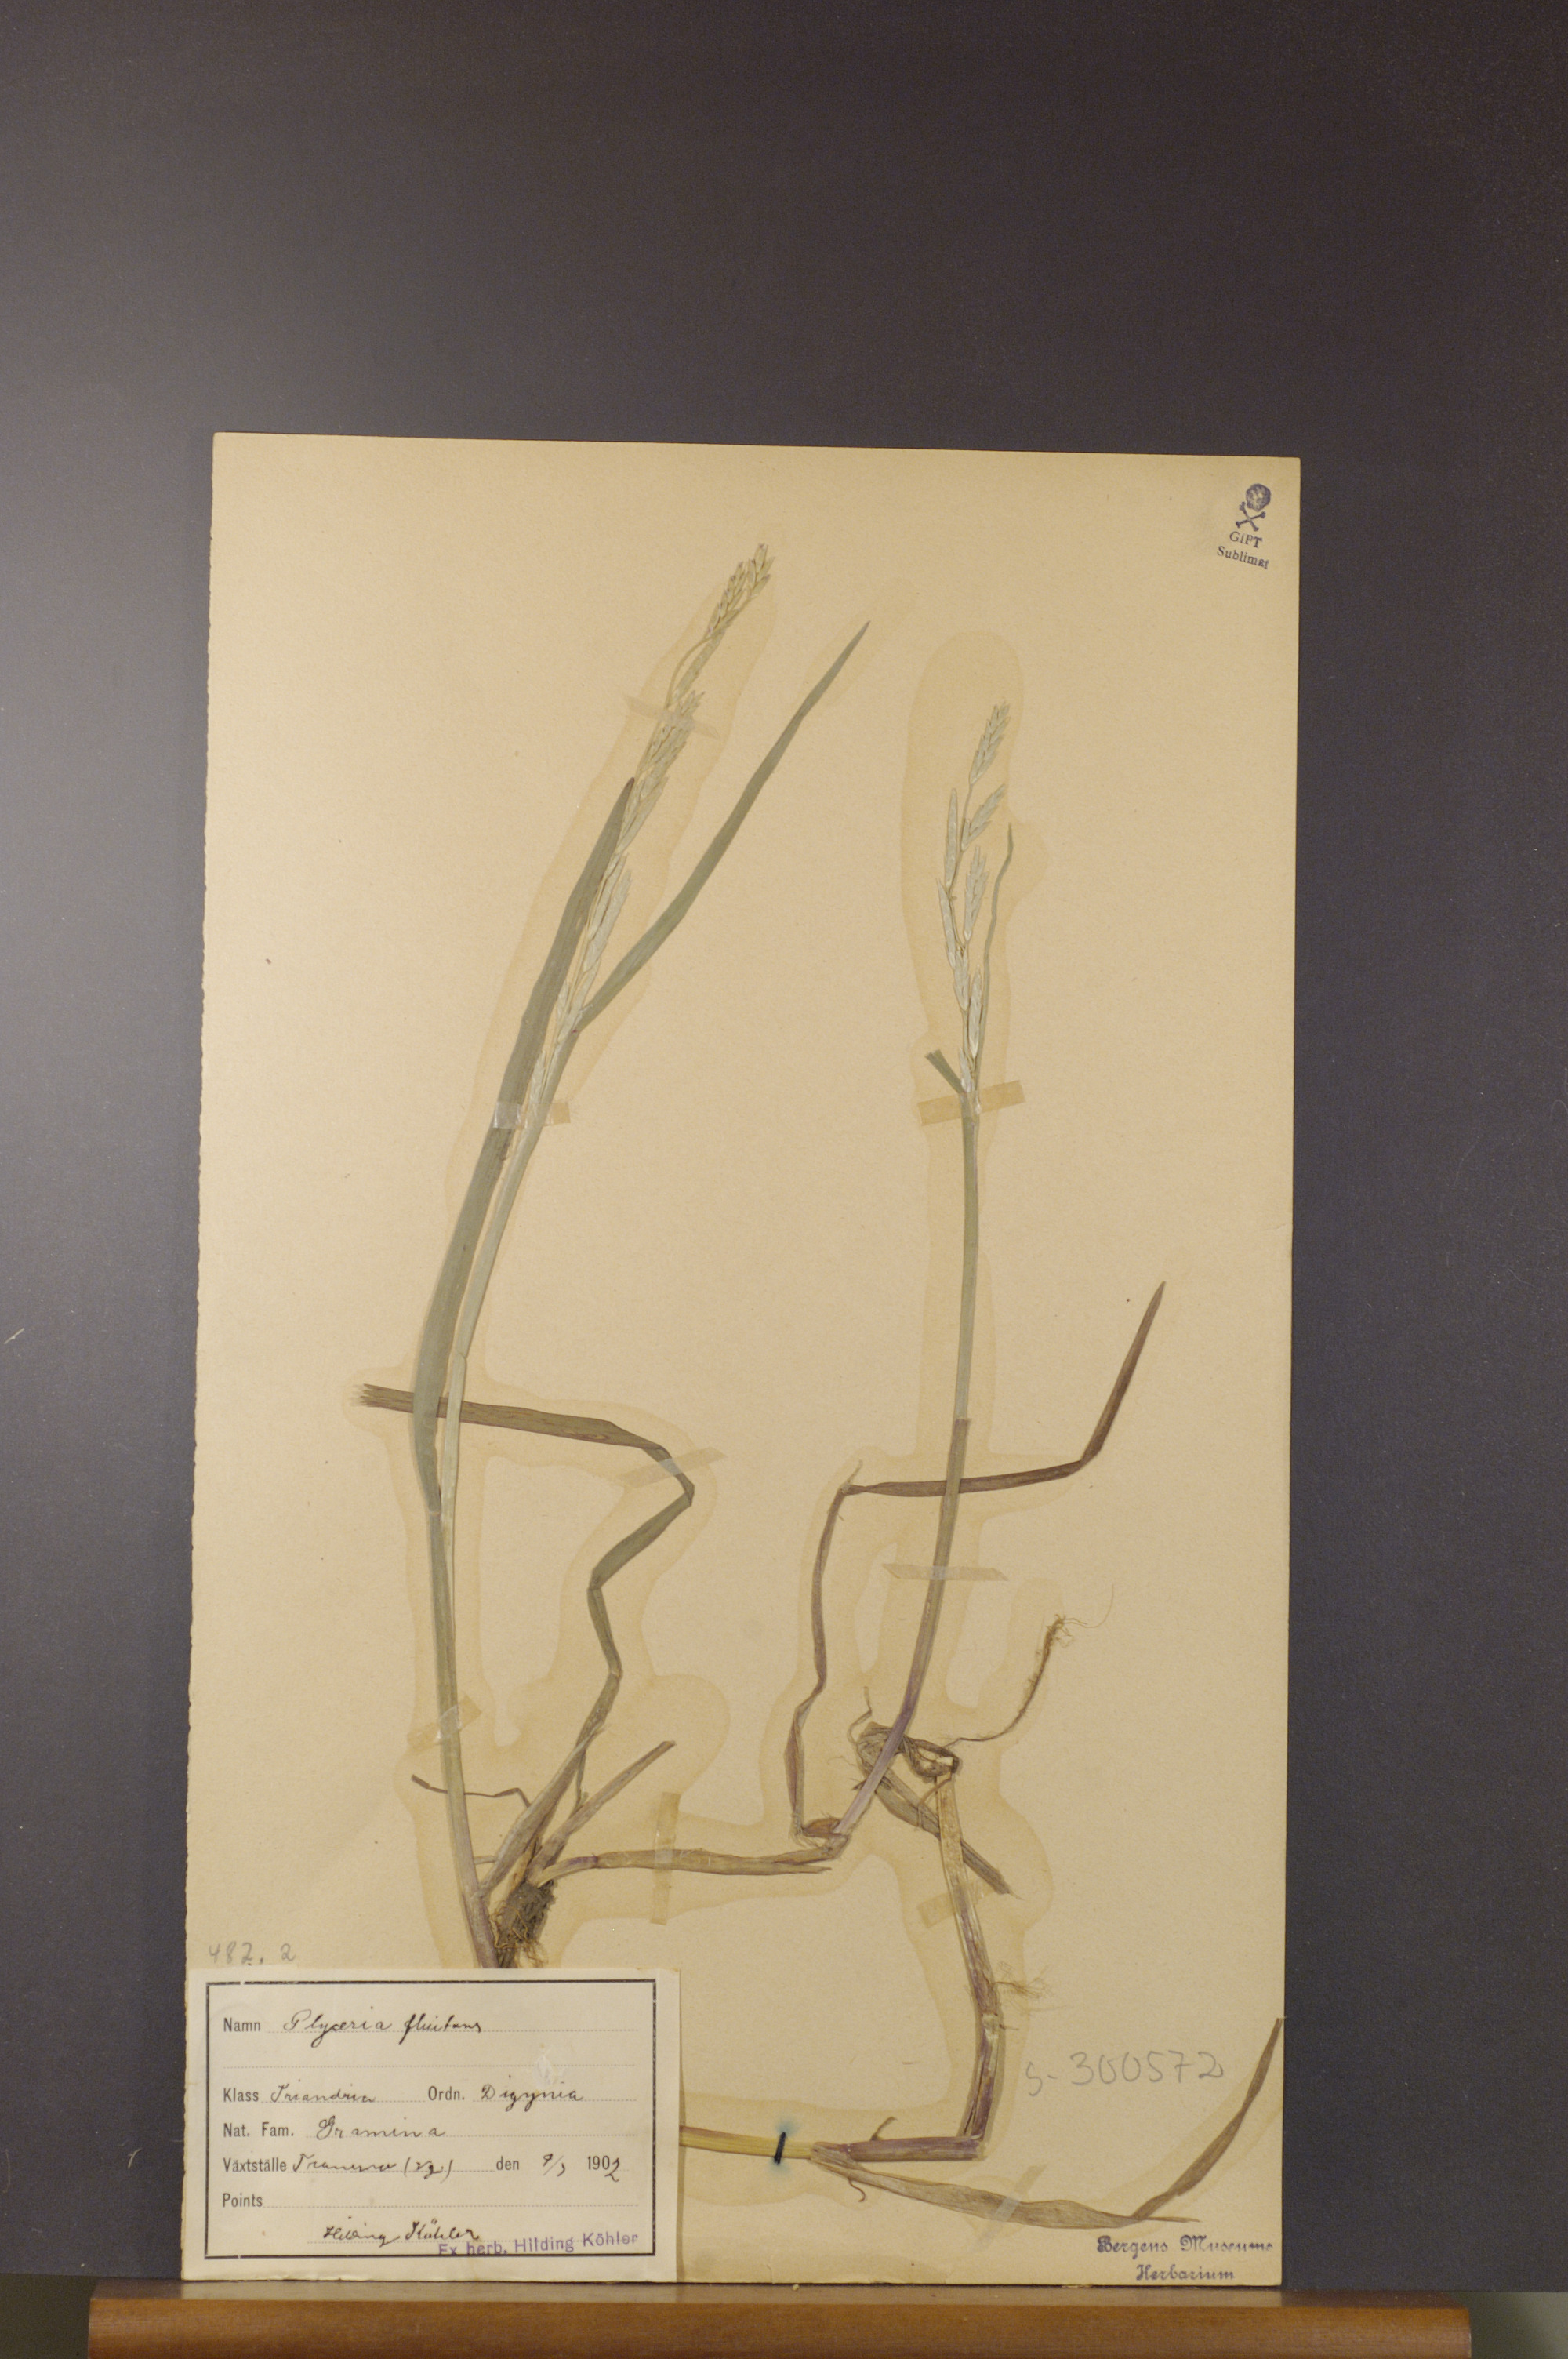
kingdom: Plantae
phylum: Tracheophyta
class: Liliopsida
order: Poales
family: Poaceae
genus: Glyceria
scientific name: Glyceria fluitans
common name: Floating sweet-grass
